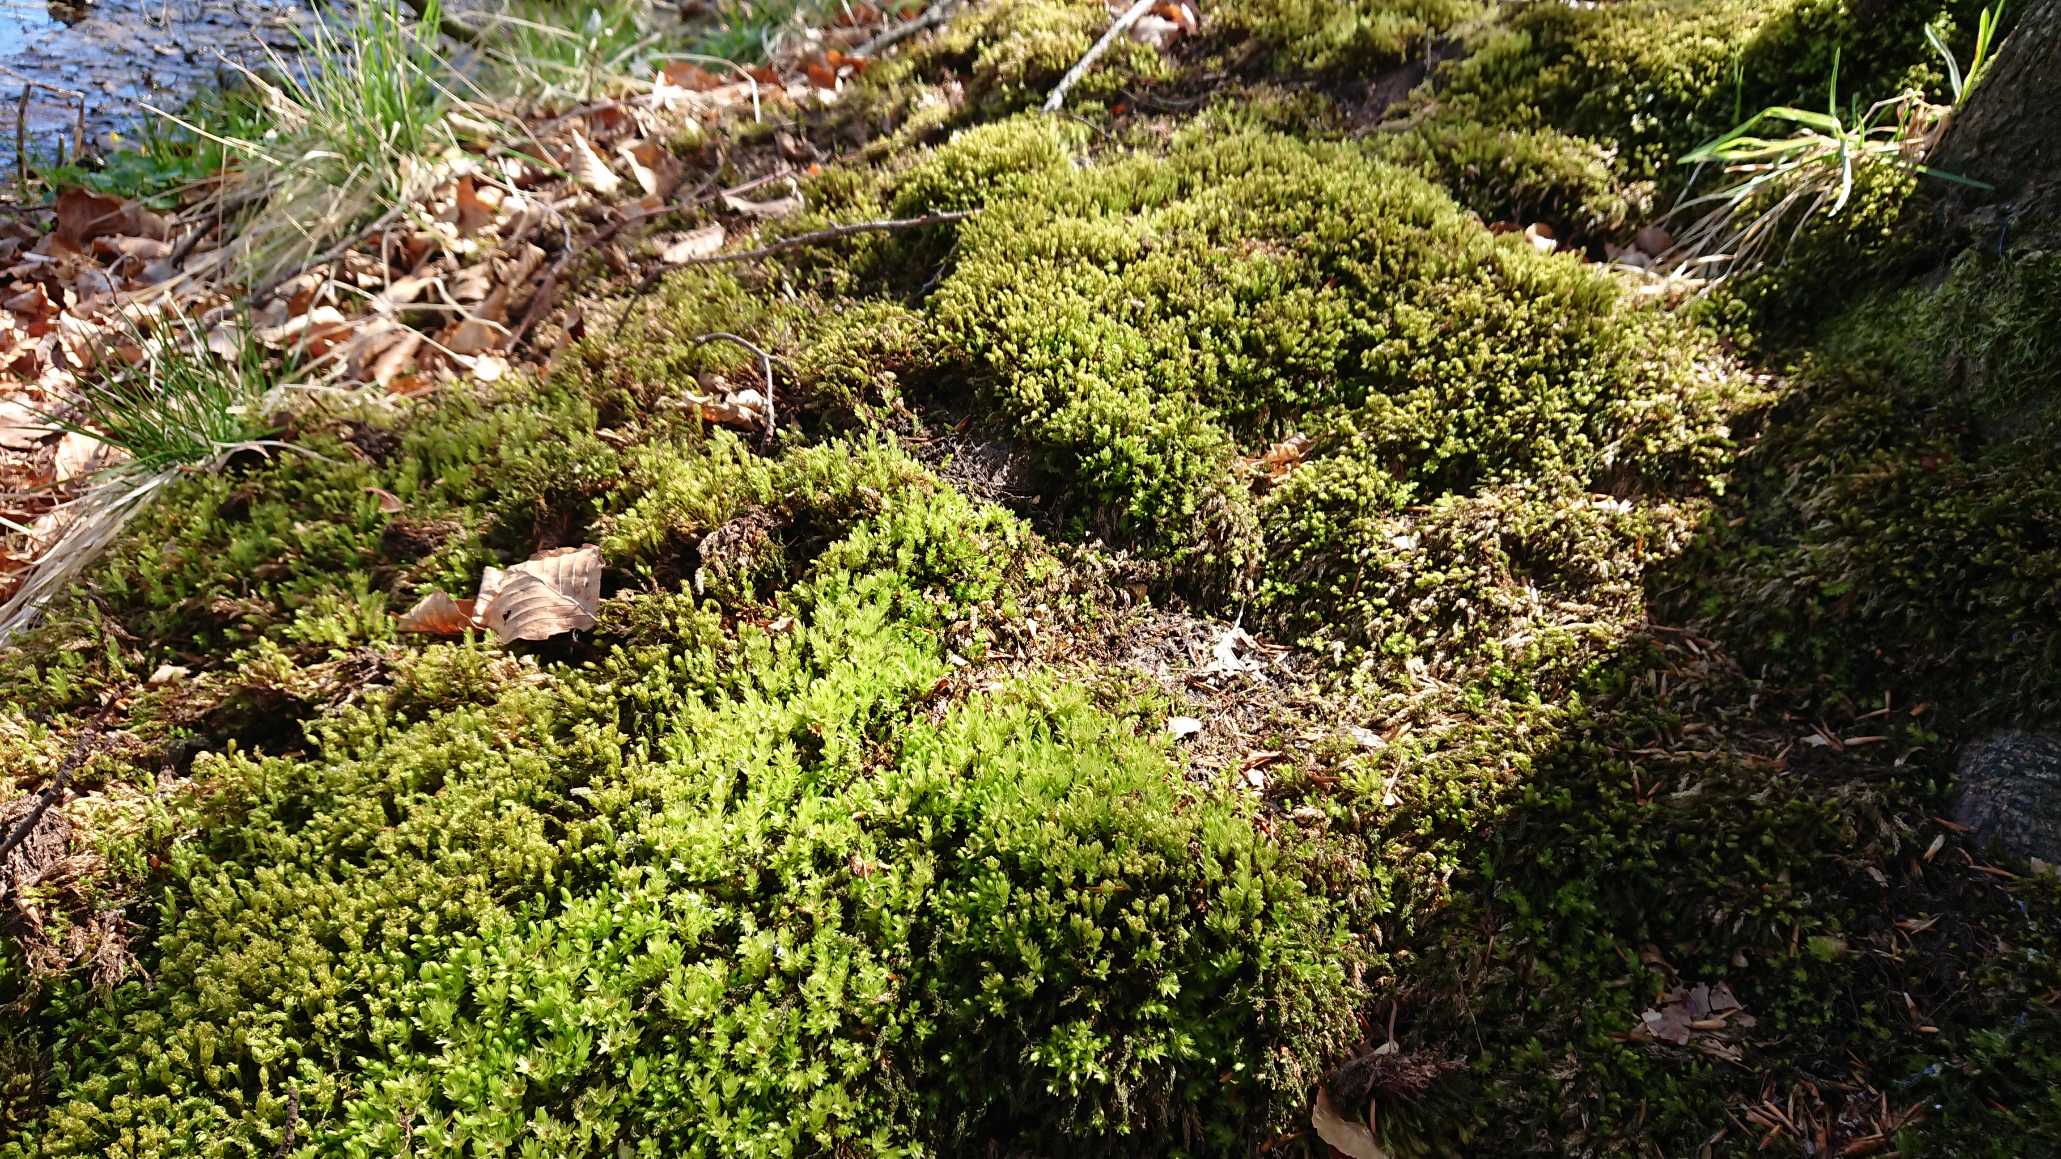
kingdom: Plantae
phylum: Bryophyta
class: Bryopsida
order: Bryales
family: Mniaceae
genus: Mnium
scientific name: Mnium hornum
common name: Brunfiltet stjernemos
